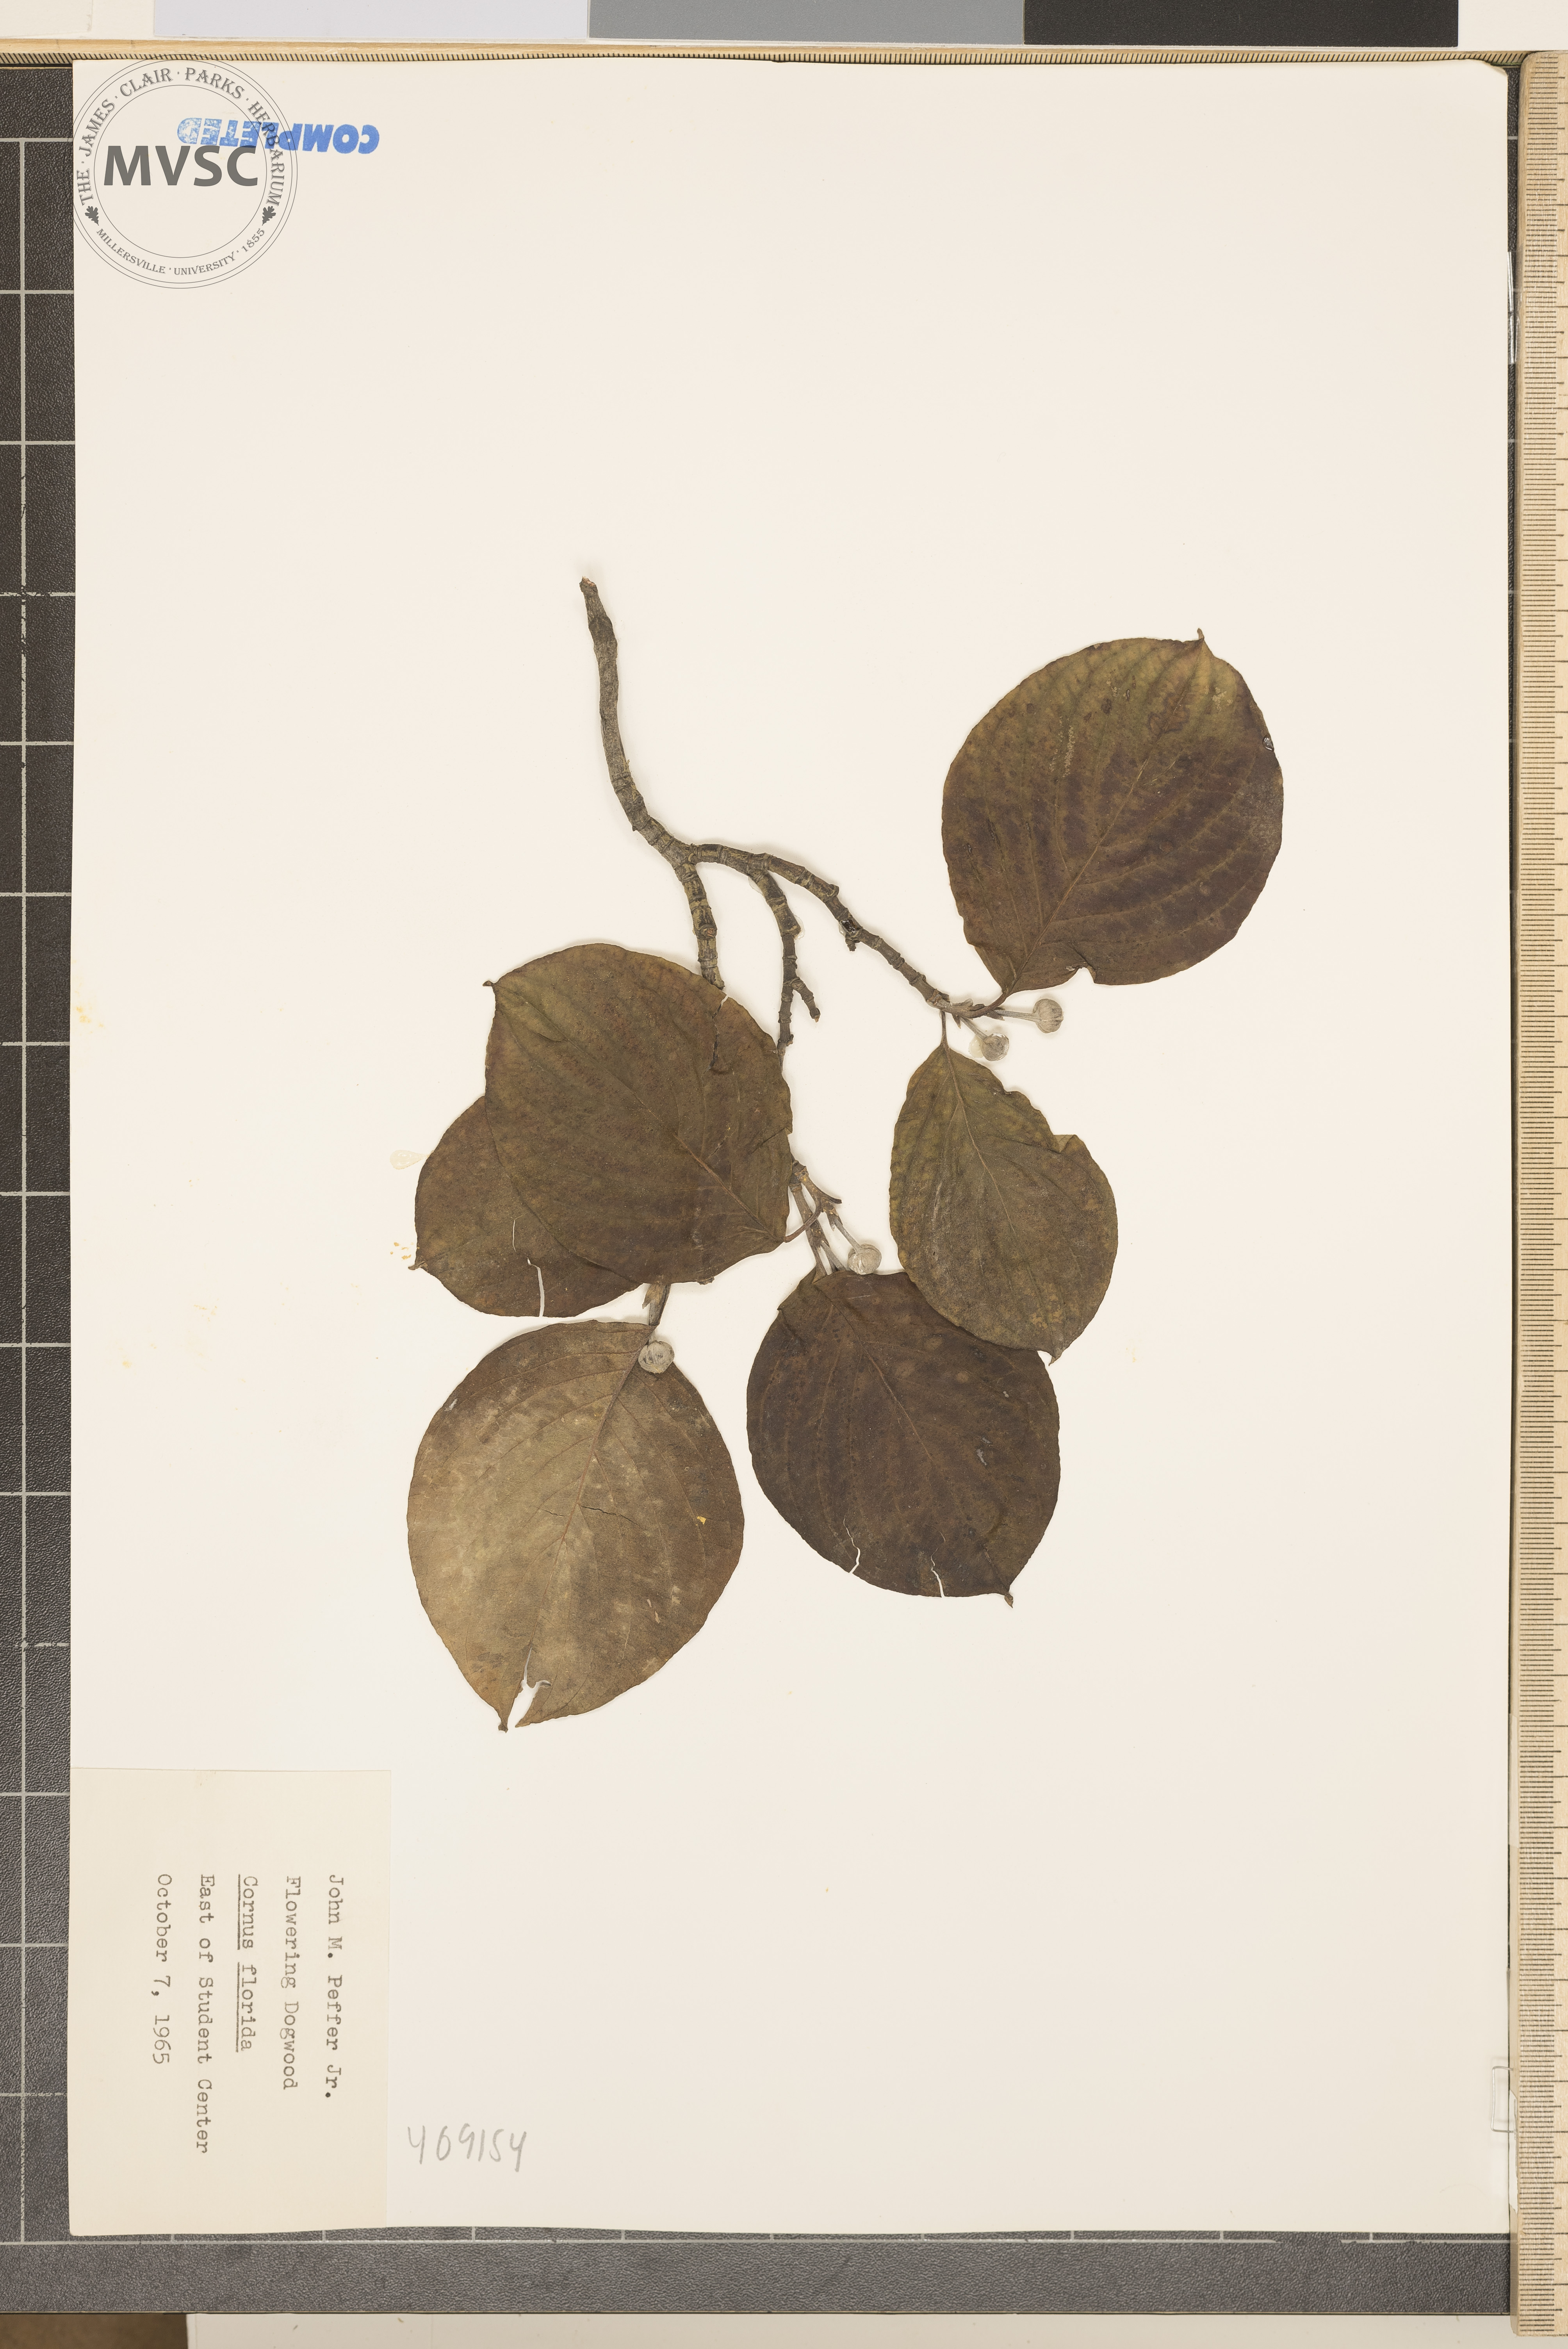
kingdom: Plantae
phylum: Tracheophyta
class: Magnoliopsida
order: Cornales
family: Cornaceae
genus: Cornus
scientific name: Cornus florida
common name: Flowering dogwood
